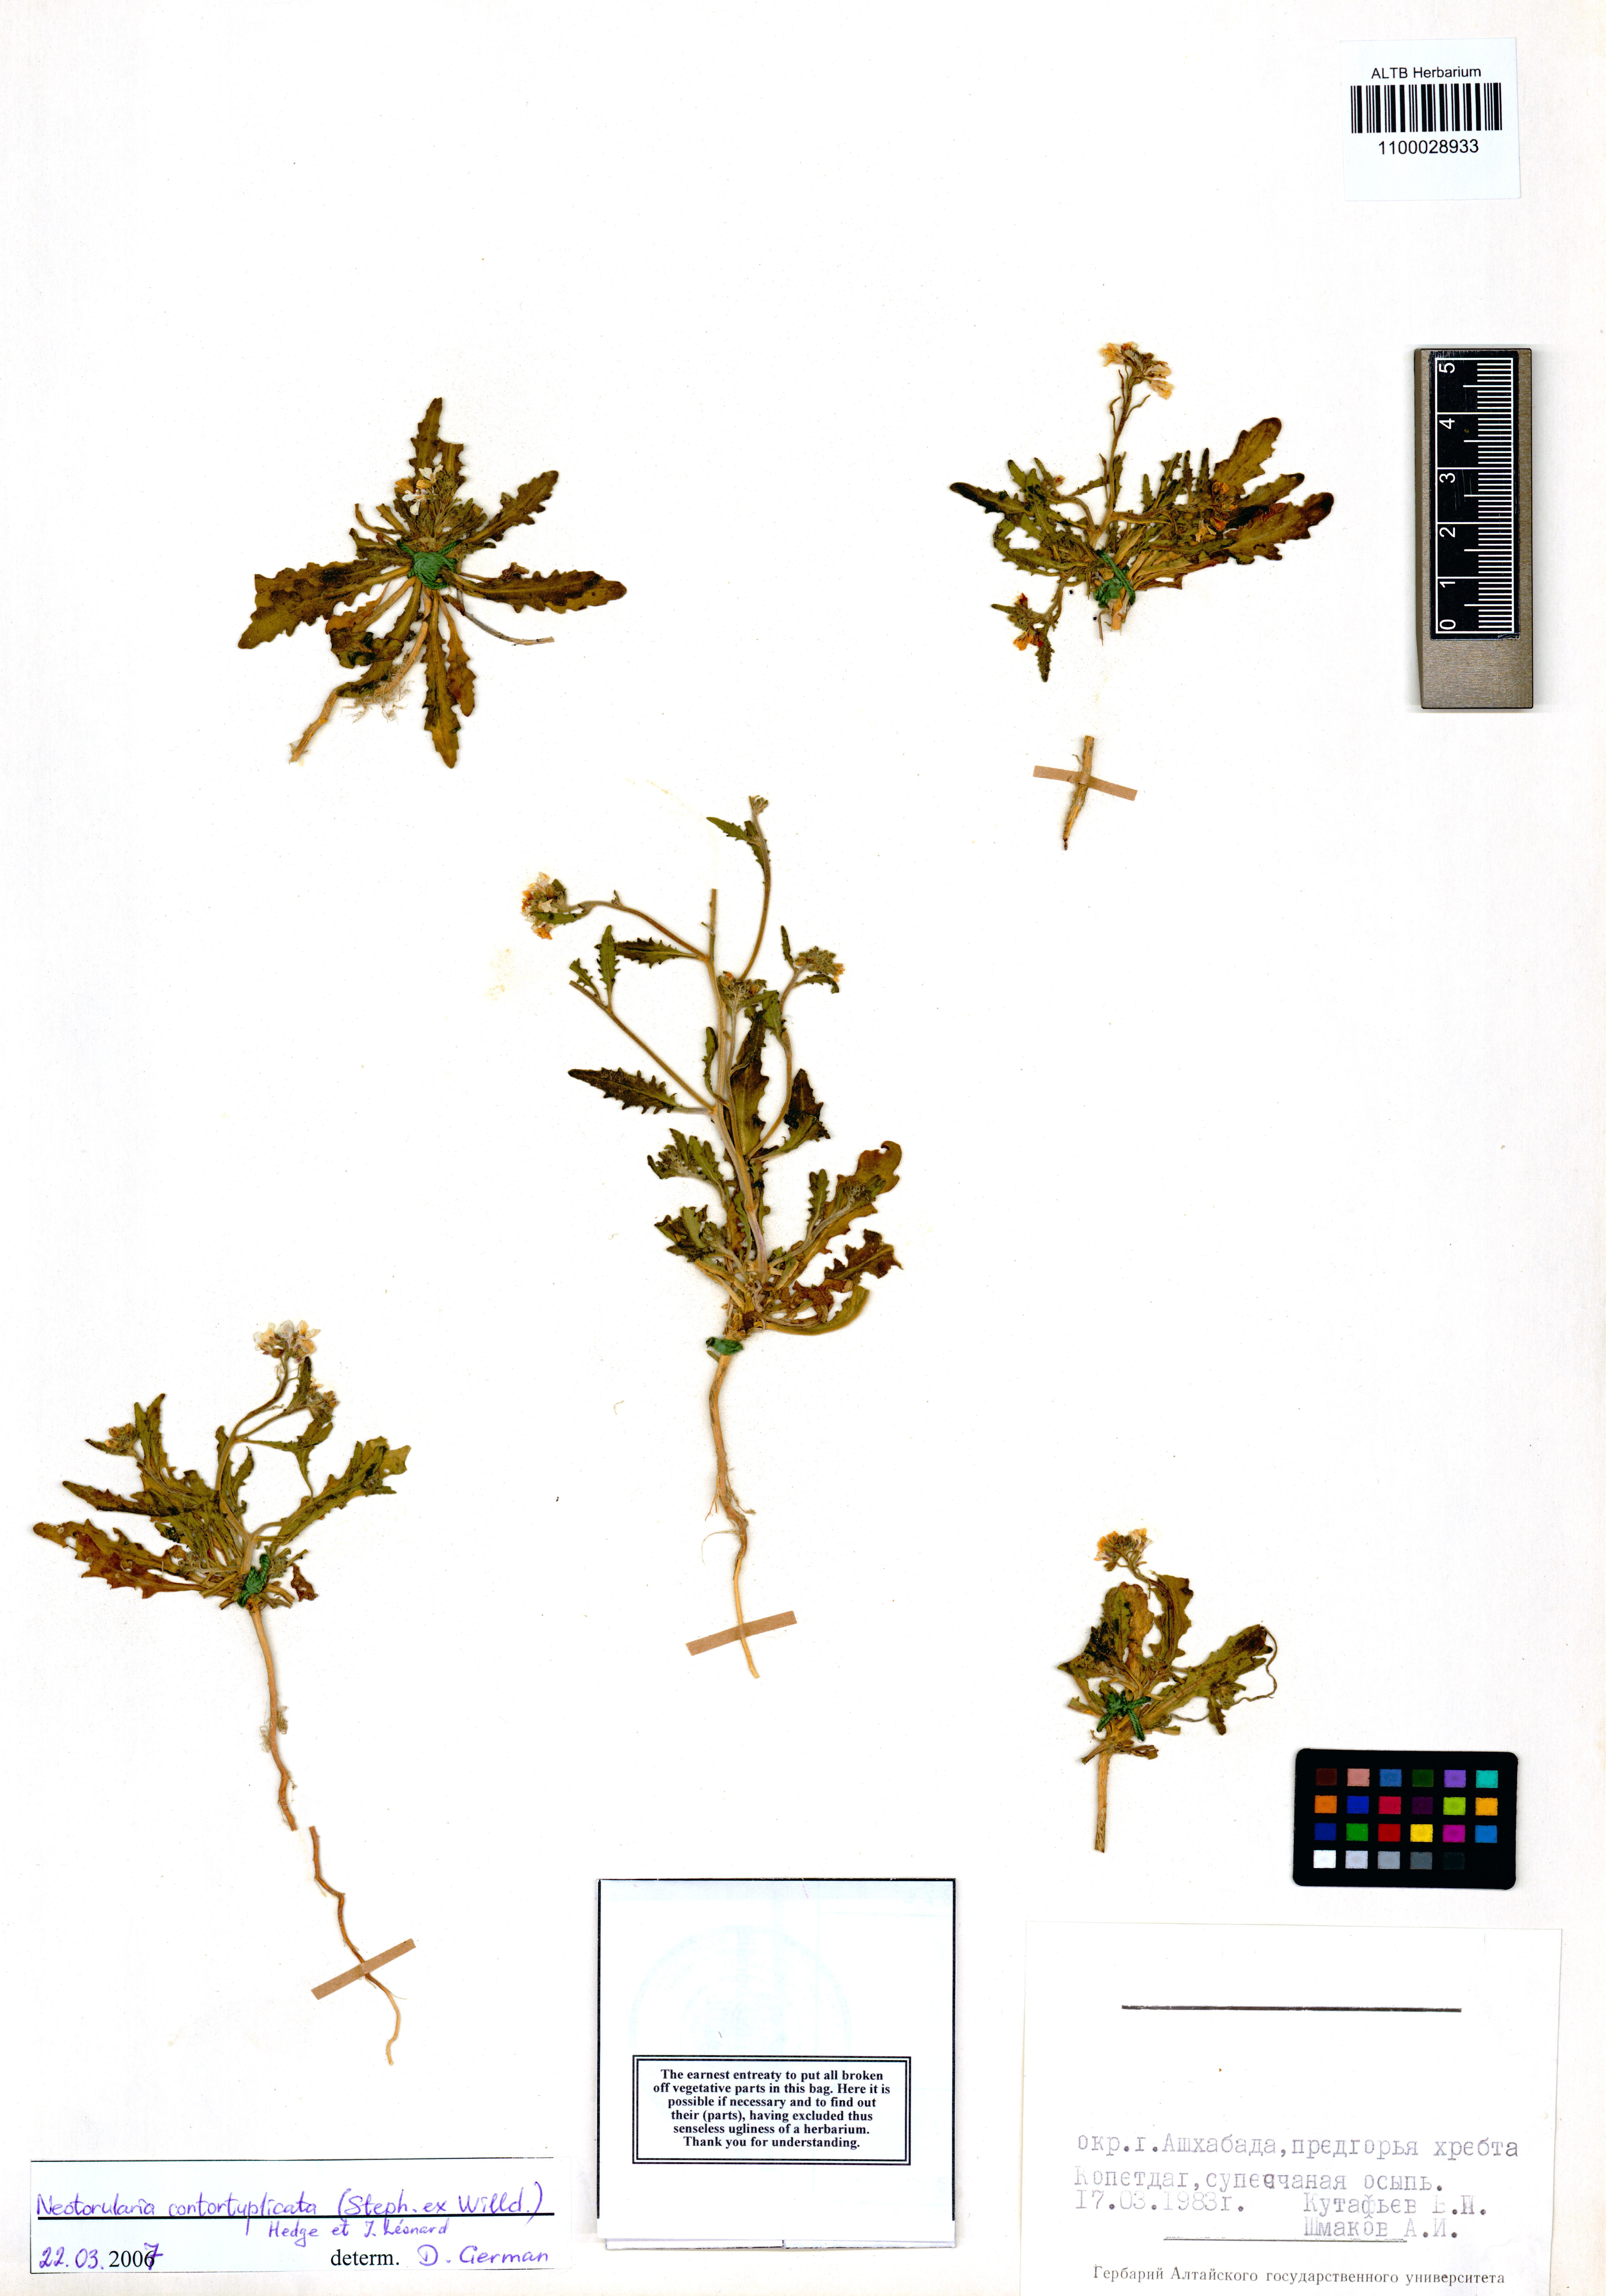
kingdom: Plantae
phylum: Tracheophyta
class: Magnoliopsida
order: Brassicales
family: Brassicaceae
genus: Neotorularia
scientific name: Neotorularia contortuplicata
